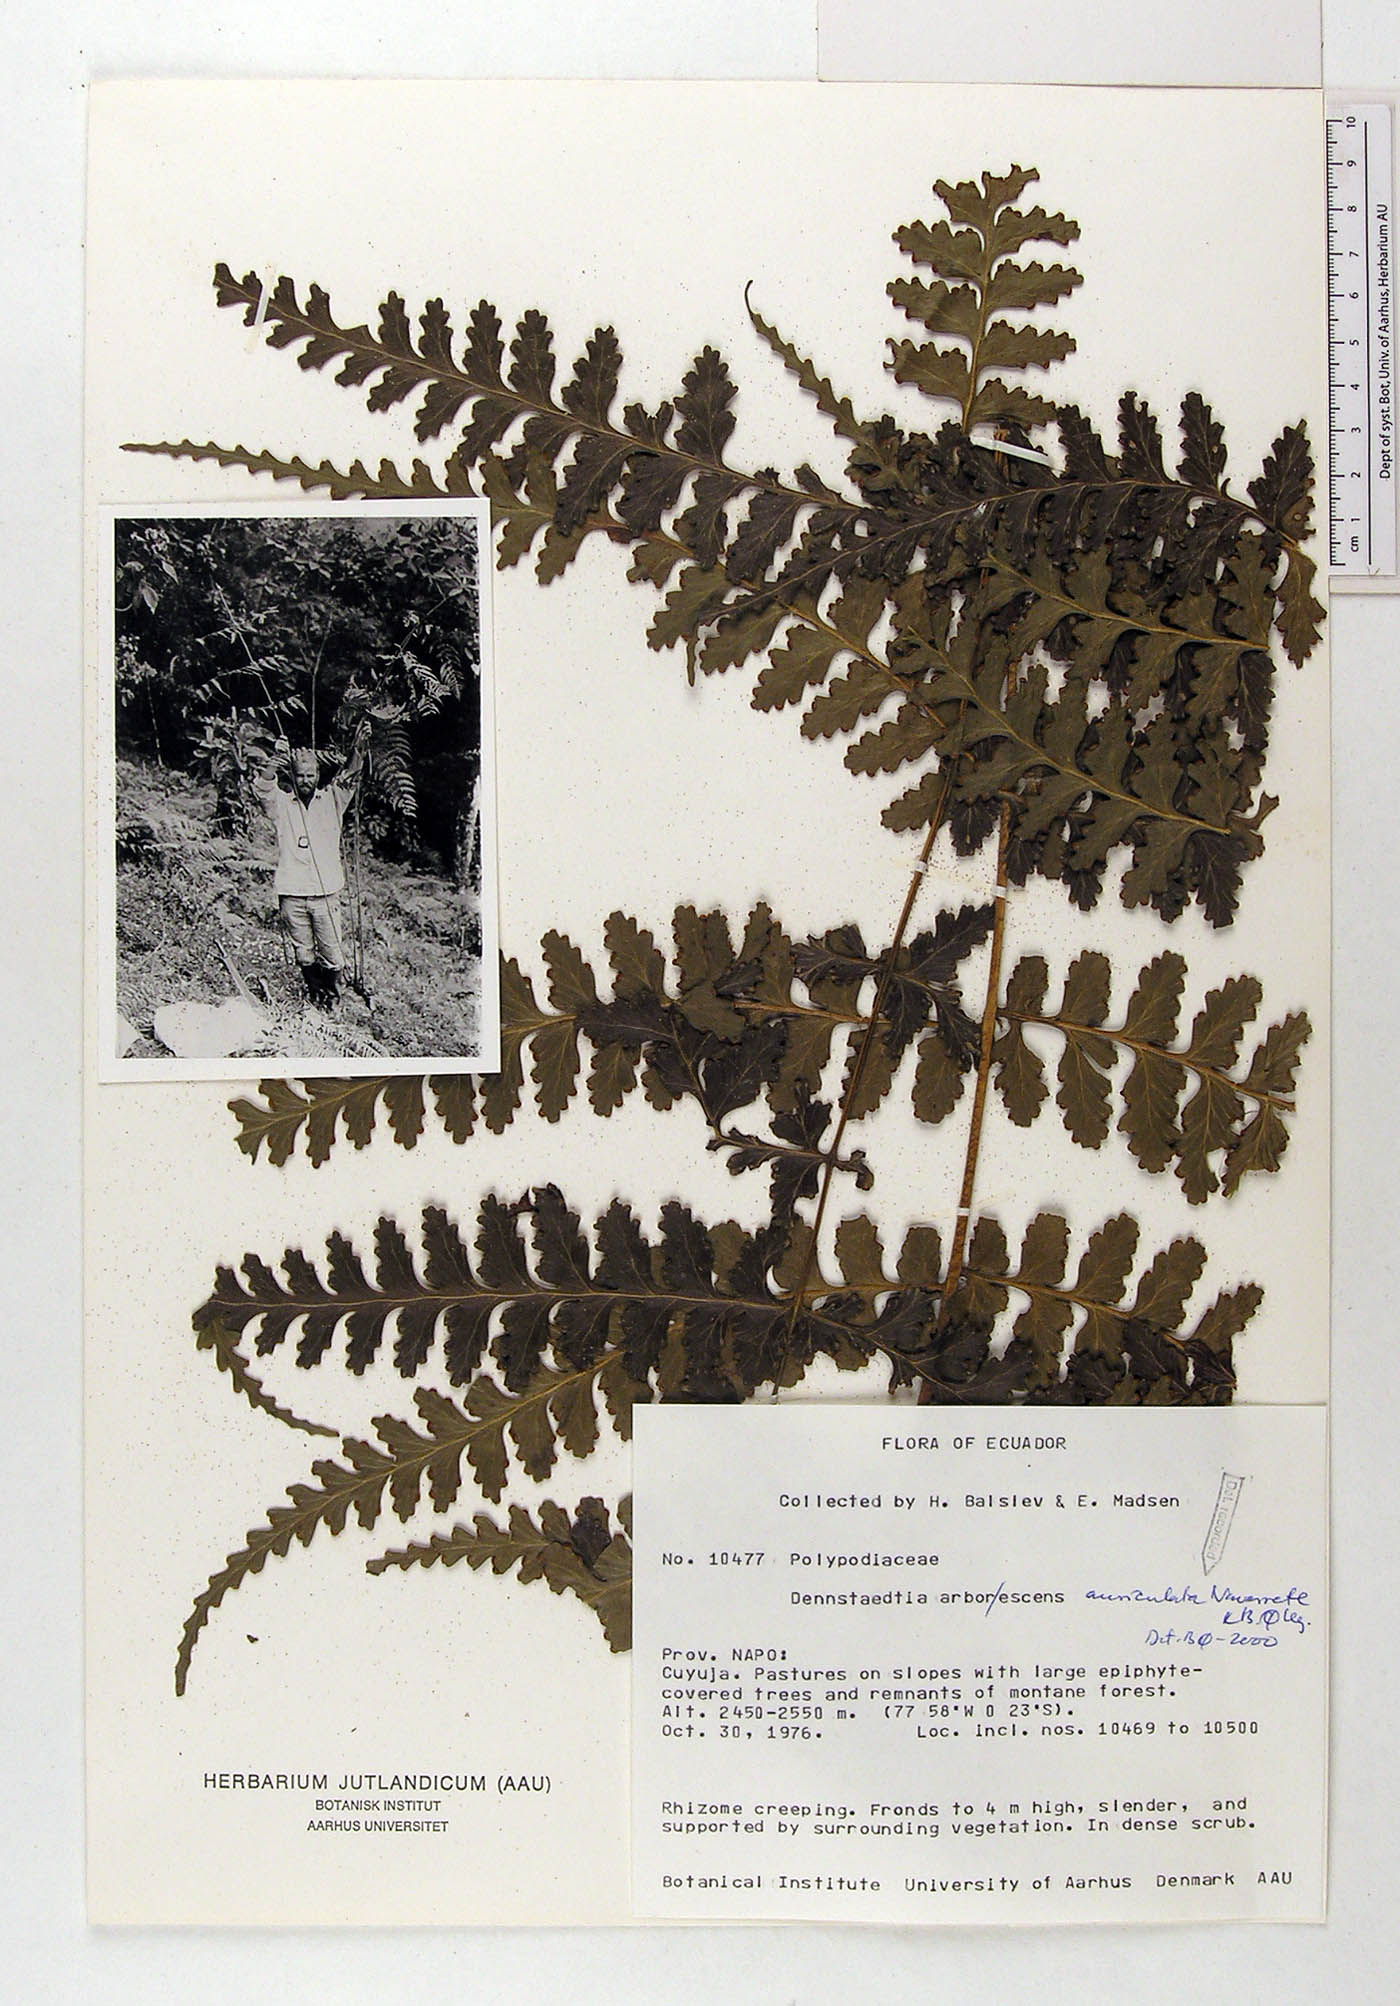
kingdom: Plantae
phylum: Tracheophyta
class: Polypodiopsida
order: Polypodiales
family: Dennstaedtiaceae
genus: Dennstaedtia
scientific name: Dennstaedtia auriculata
